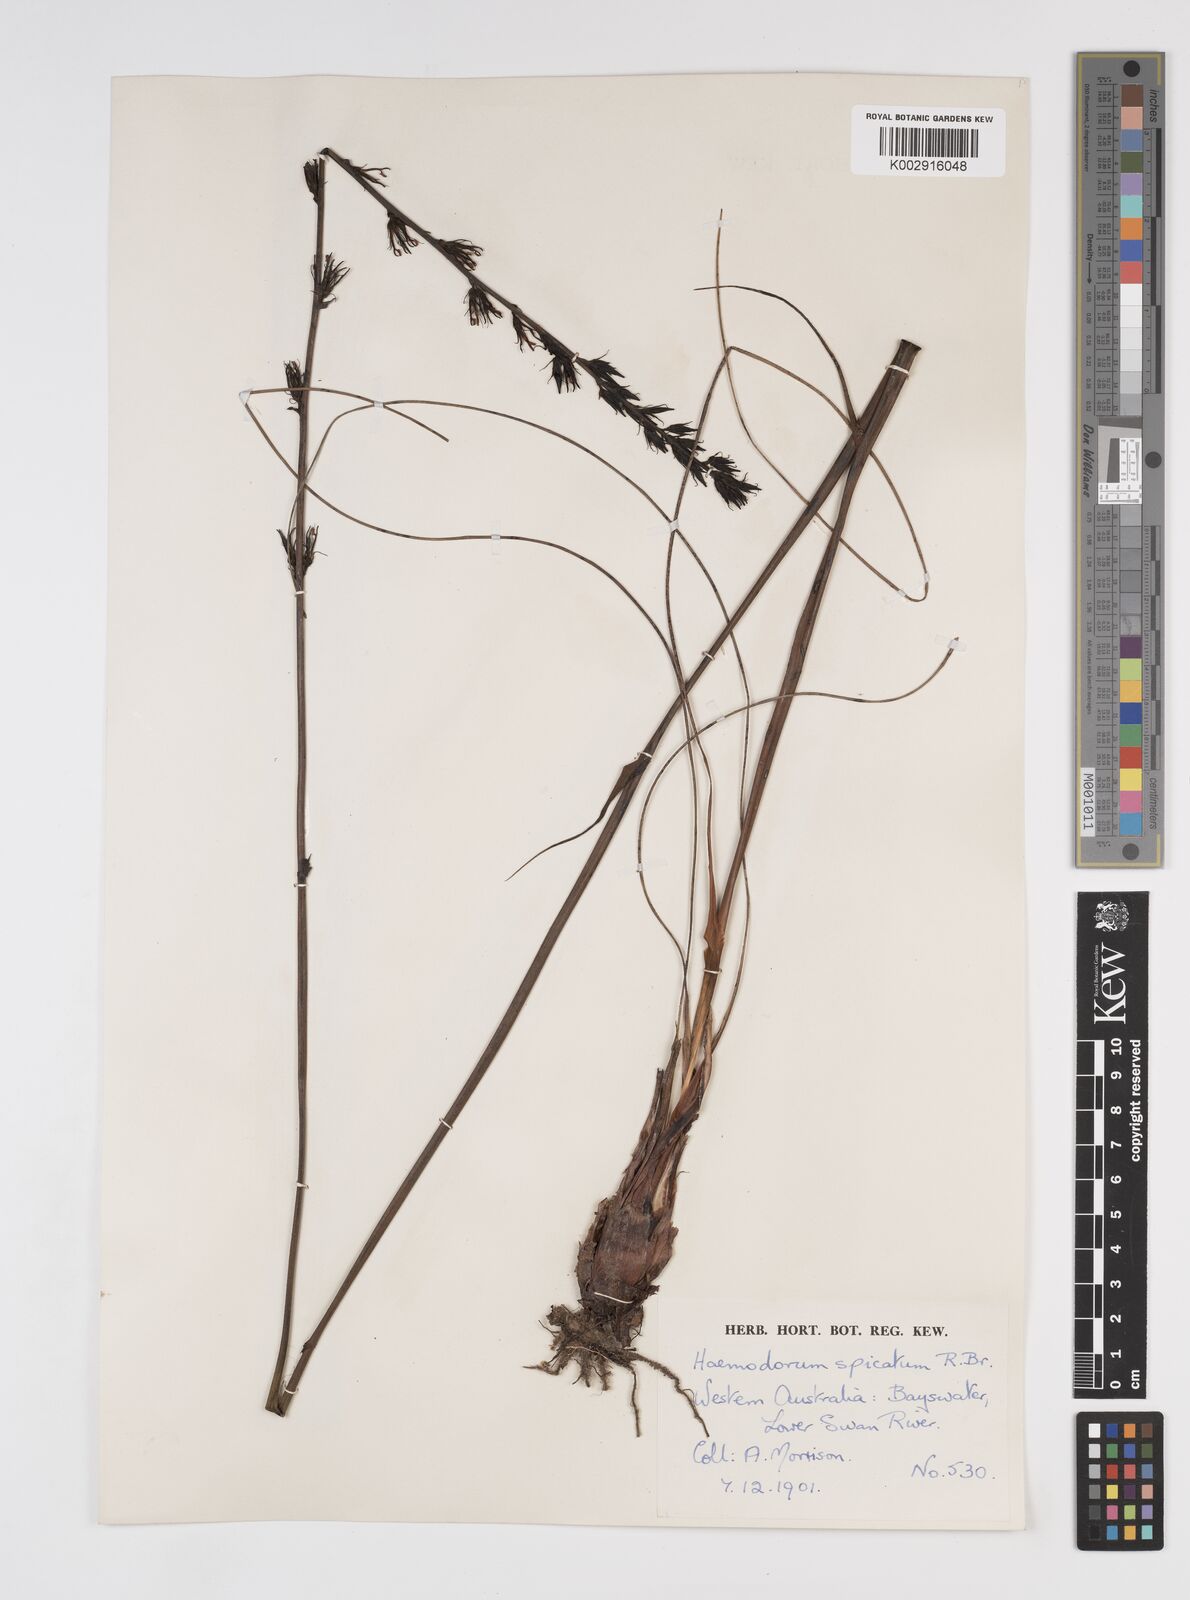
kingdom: Plantae
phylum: Tracheophyta
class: Liliopsida
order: Commelinales
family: Haemodoraceae
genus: Haemodorum
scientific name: Haemodorum spicatum
